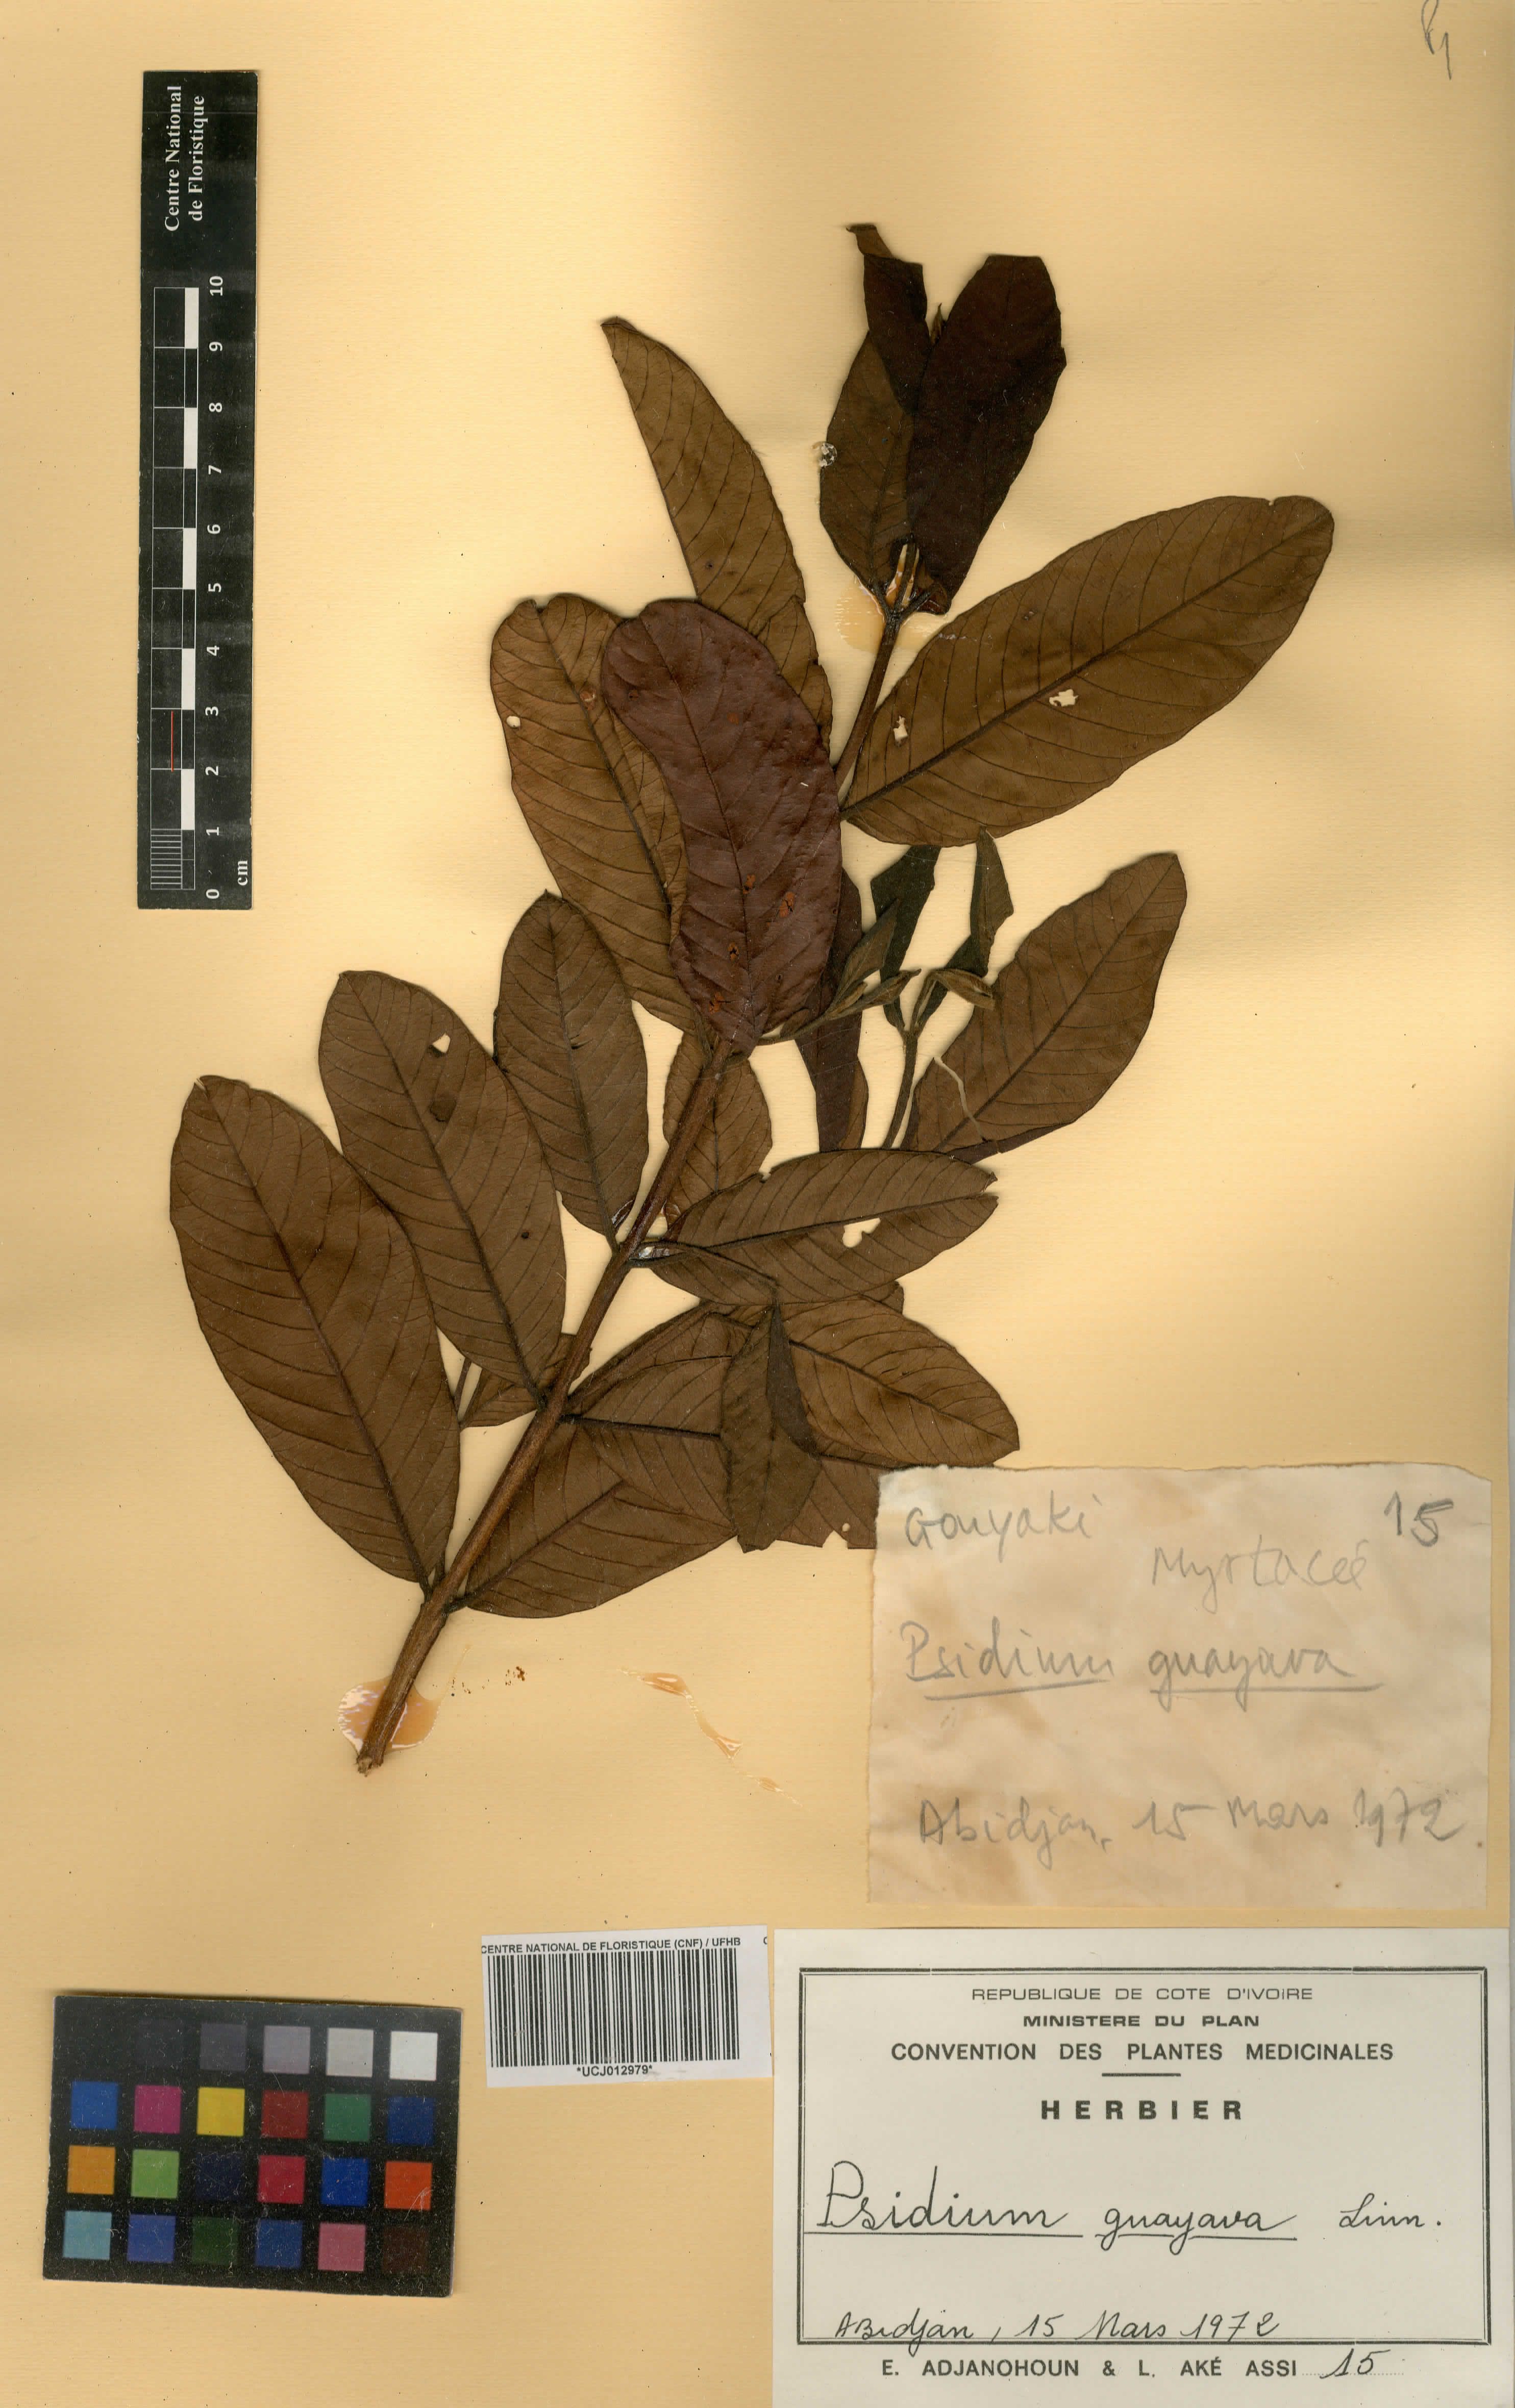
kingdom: Plantae
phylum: Tracheophyta
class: Magnoliopsida
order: Myrtales
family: Myrtaceae
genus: Psidium
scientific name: Psidium guajava
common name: Guava
